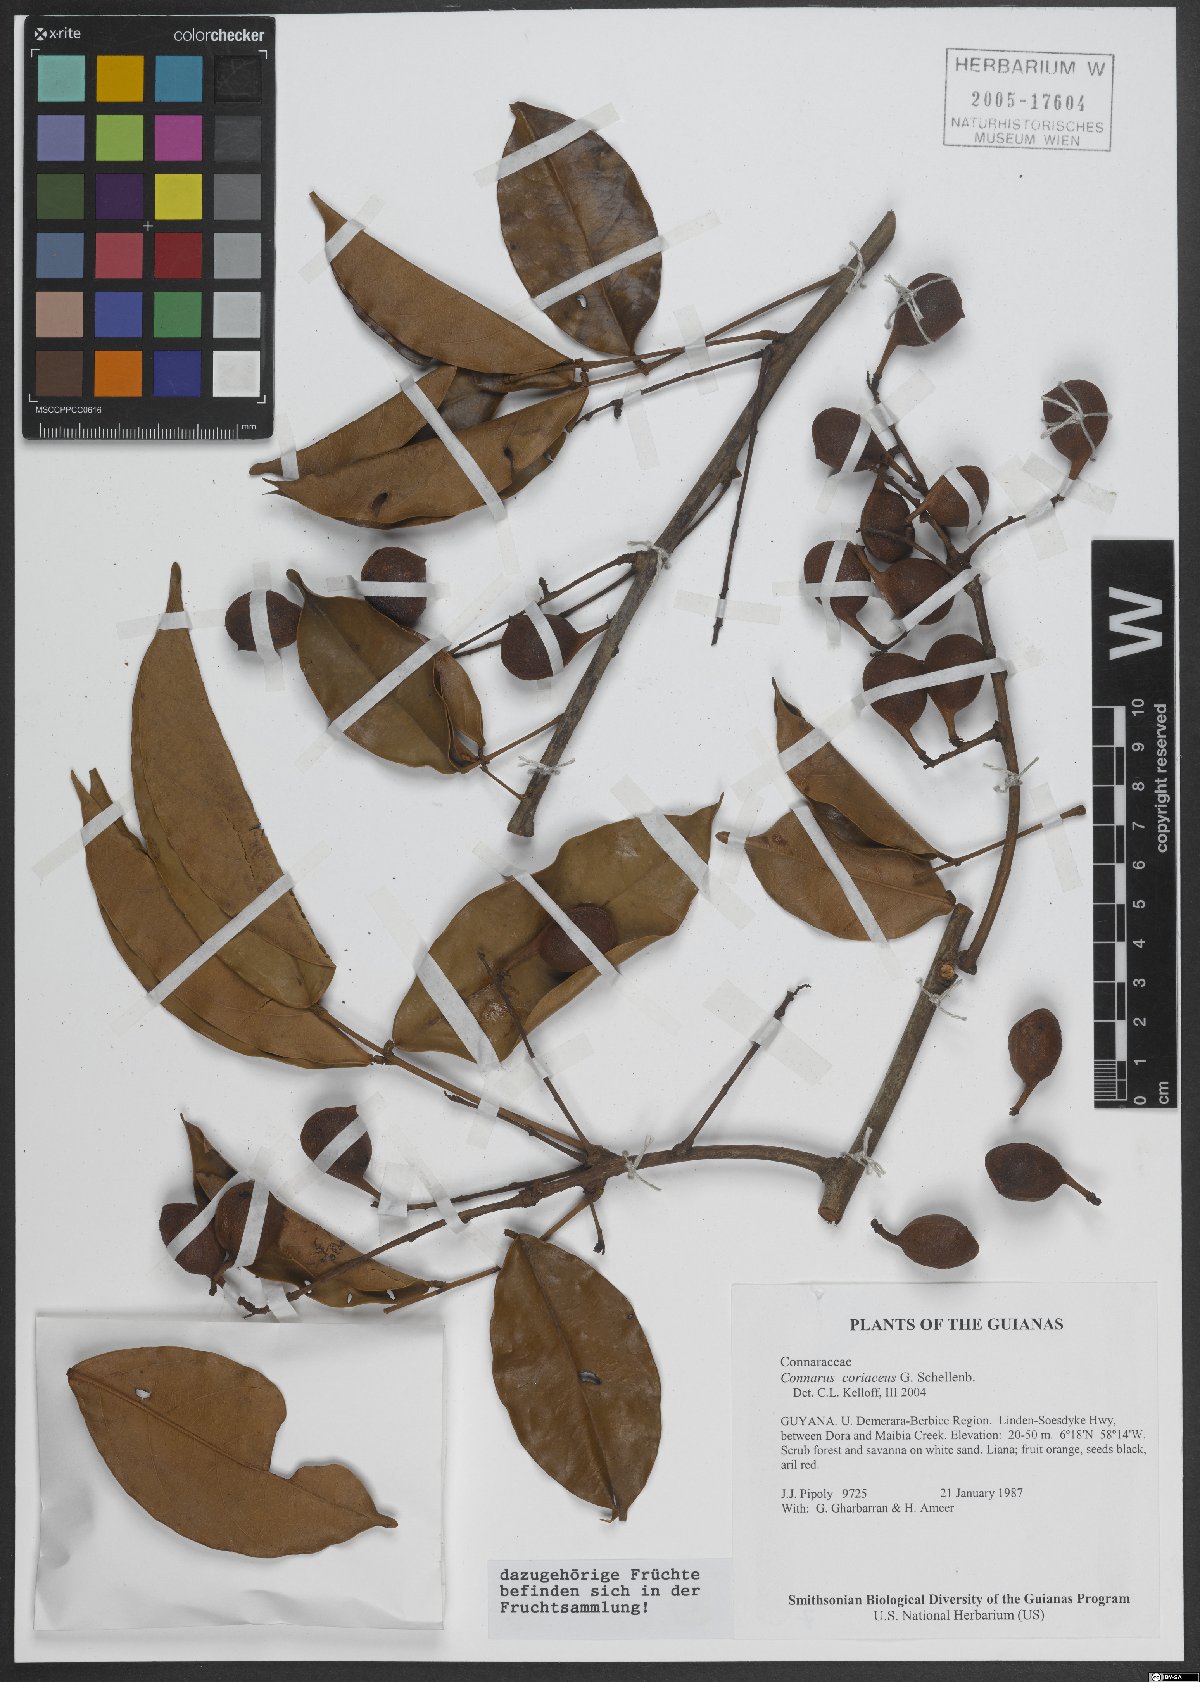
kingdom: Plantae
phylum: Tracheophyta
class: Magnoliopsida
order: Oxalidales
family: Connaraceae
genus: Connarus
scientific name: Connarus coriaceus
